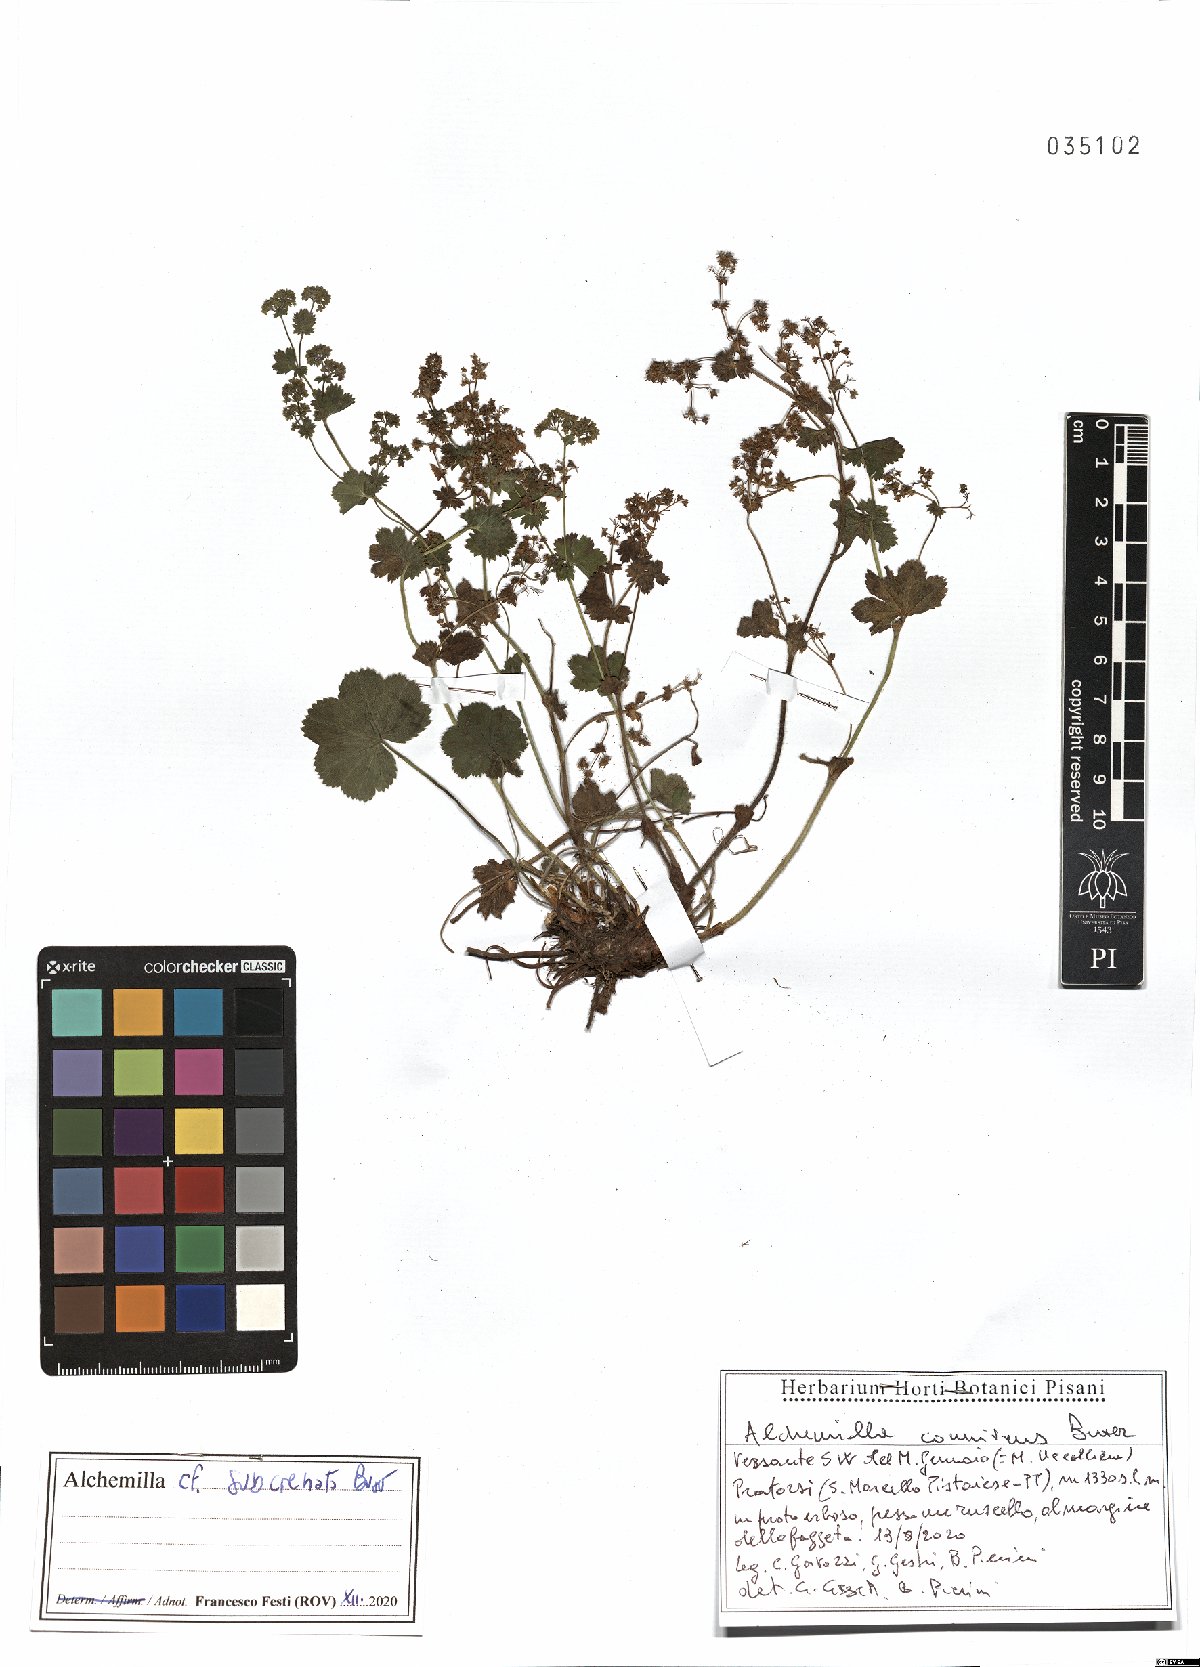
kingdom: Plantae
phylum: Tracheophyta
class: Magnoliopsida
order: Rosales
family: Rosaceae
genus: Alchemilla
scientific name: Alchemilla subcrenata
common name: Broadtooth lady's mantle
